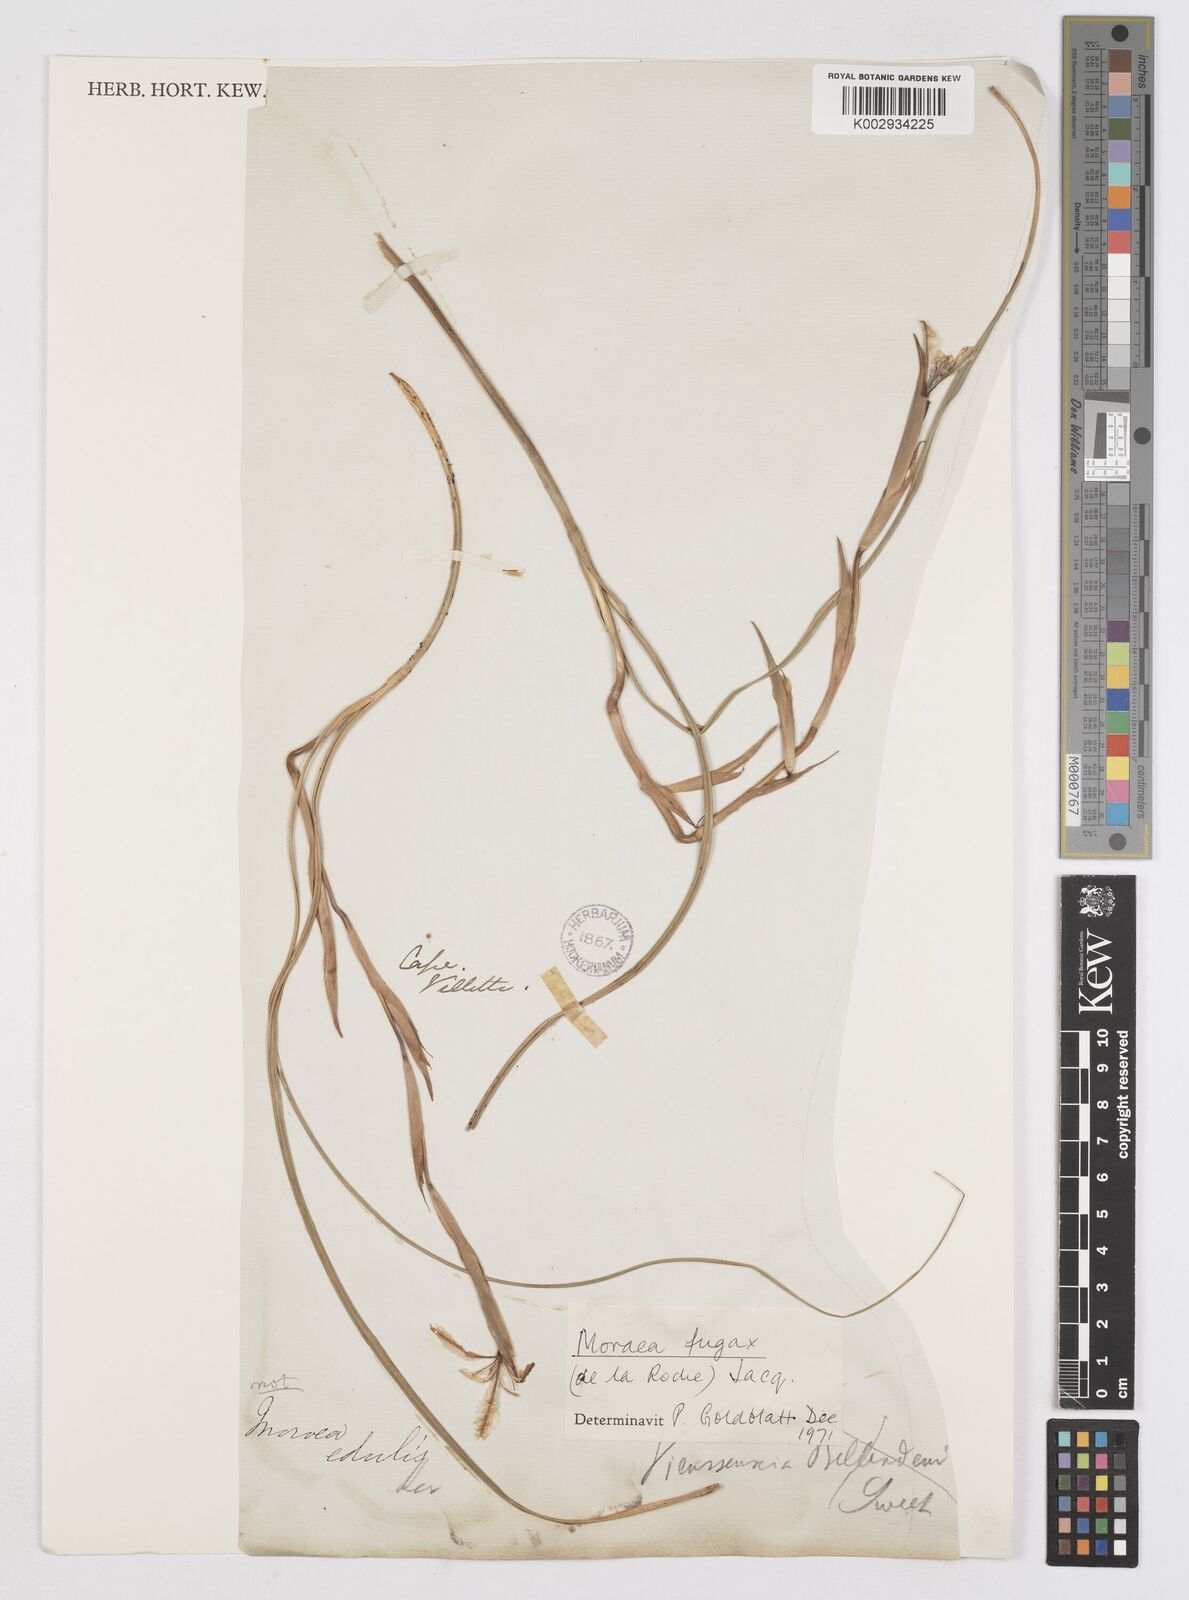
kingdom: Plantae
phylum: Tracheophyta
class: Liliopsida
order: Asparagales
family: Iridaceae
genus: Moraea
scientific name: Moraea fugax
